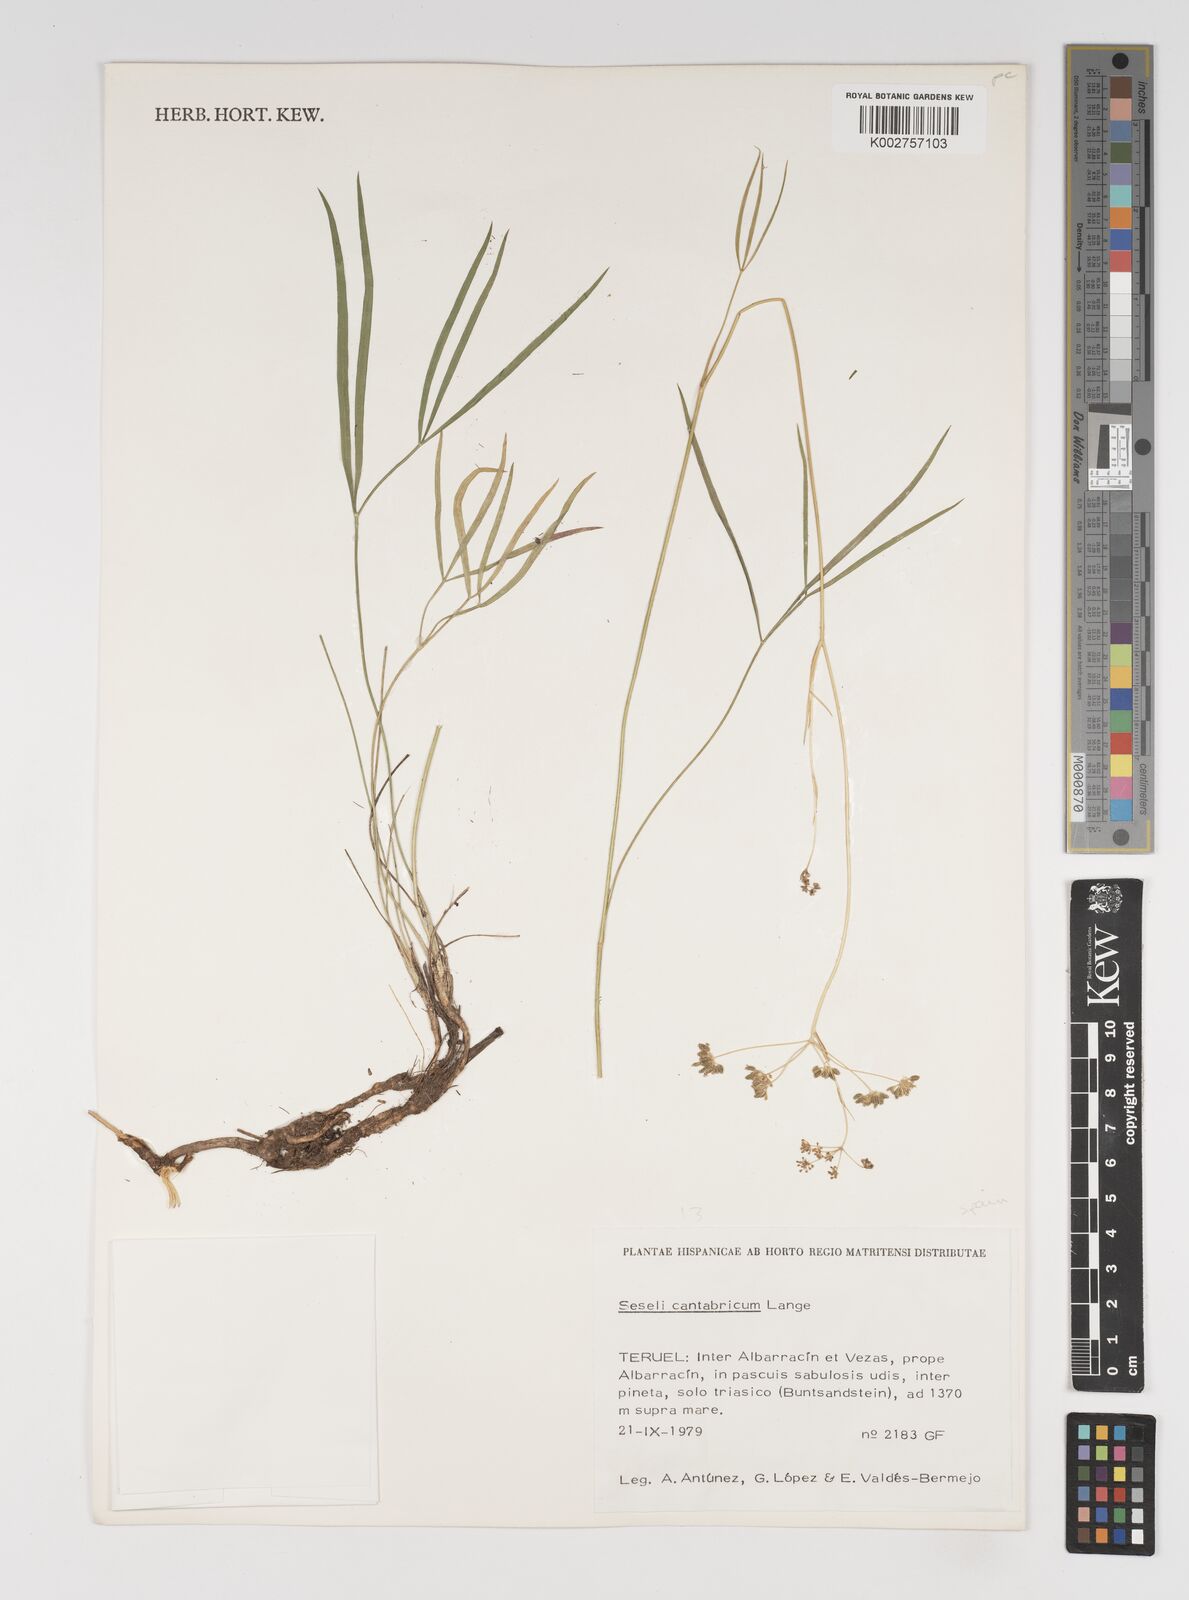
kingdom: Plantae
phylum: Tracheophyta
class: Magnoliopsida
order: Apiales
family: Apiaceae
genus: Seseli
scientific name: Seseli montanum
